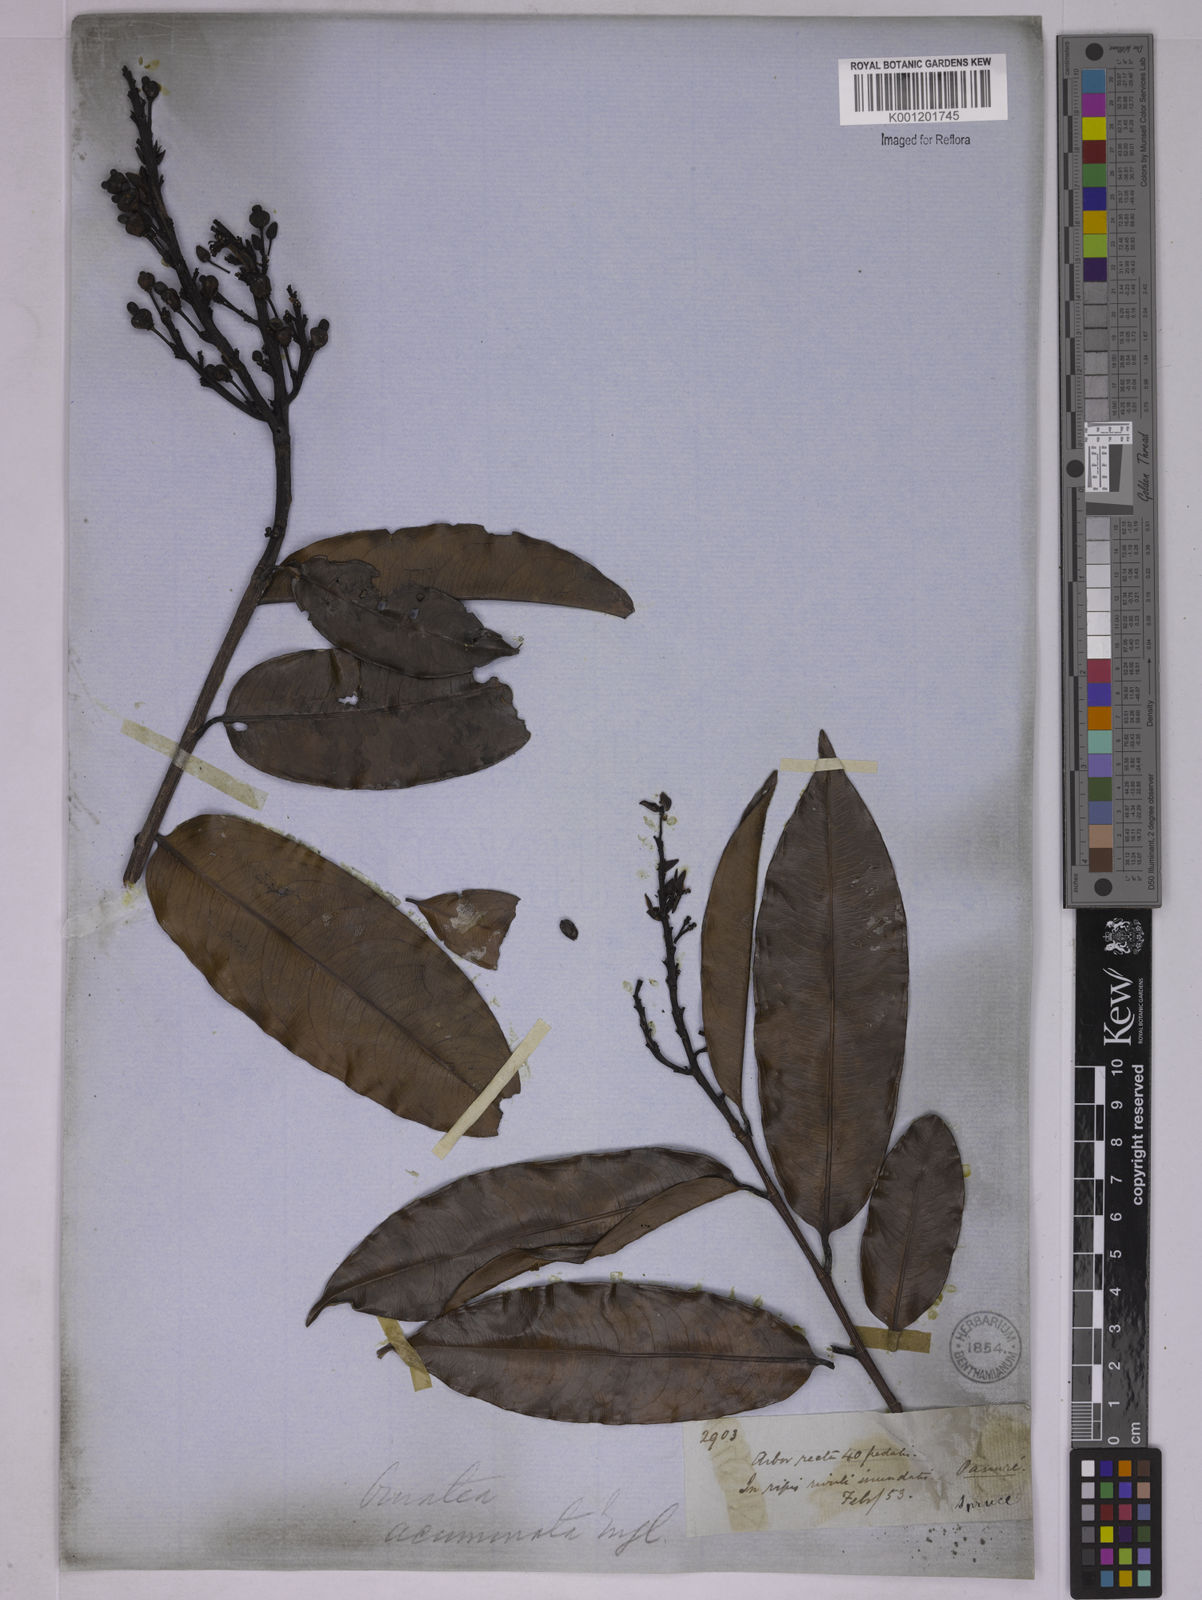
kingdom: Plantae
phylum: Tracheophyta
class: Magnoliopsida
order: Malpighiales
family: Ochnaceae
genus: Ouratea
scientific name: Ouratea acuminata
